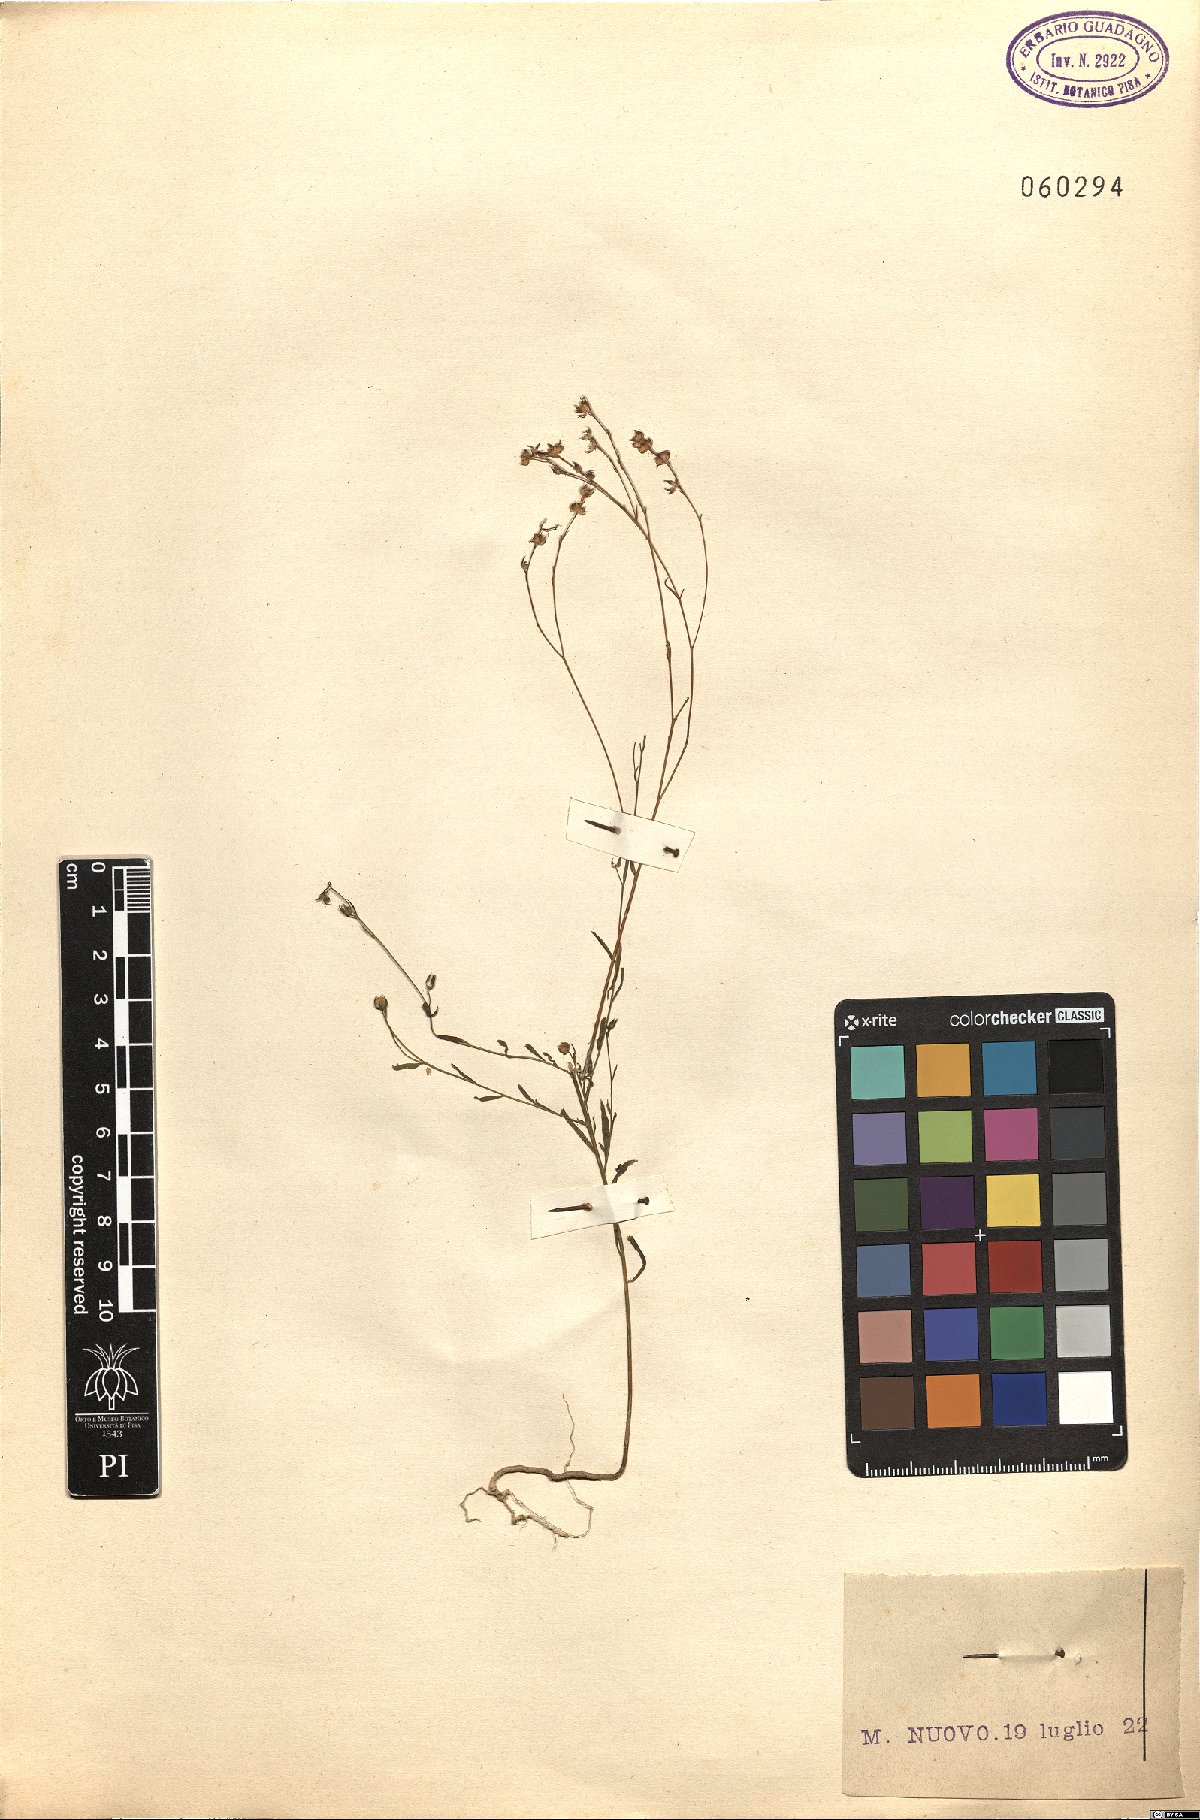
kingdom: Plantae
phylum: Tracheophyta
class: Magnoliopsida
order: Malpighiales
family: Linaceae
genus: Linum
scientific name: Linum catharticum
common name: Fairy flax
